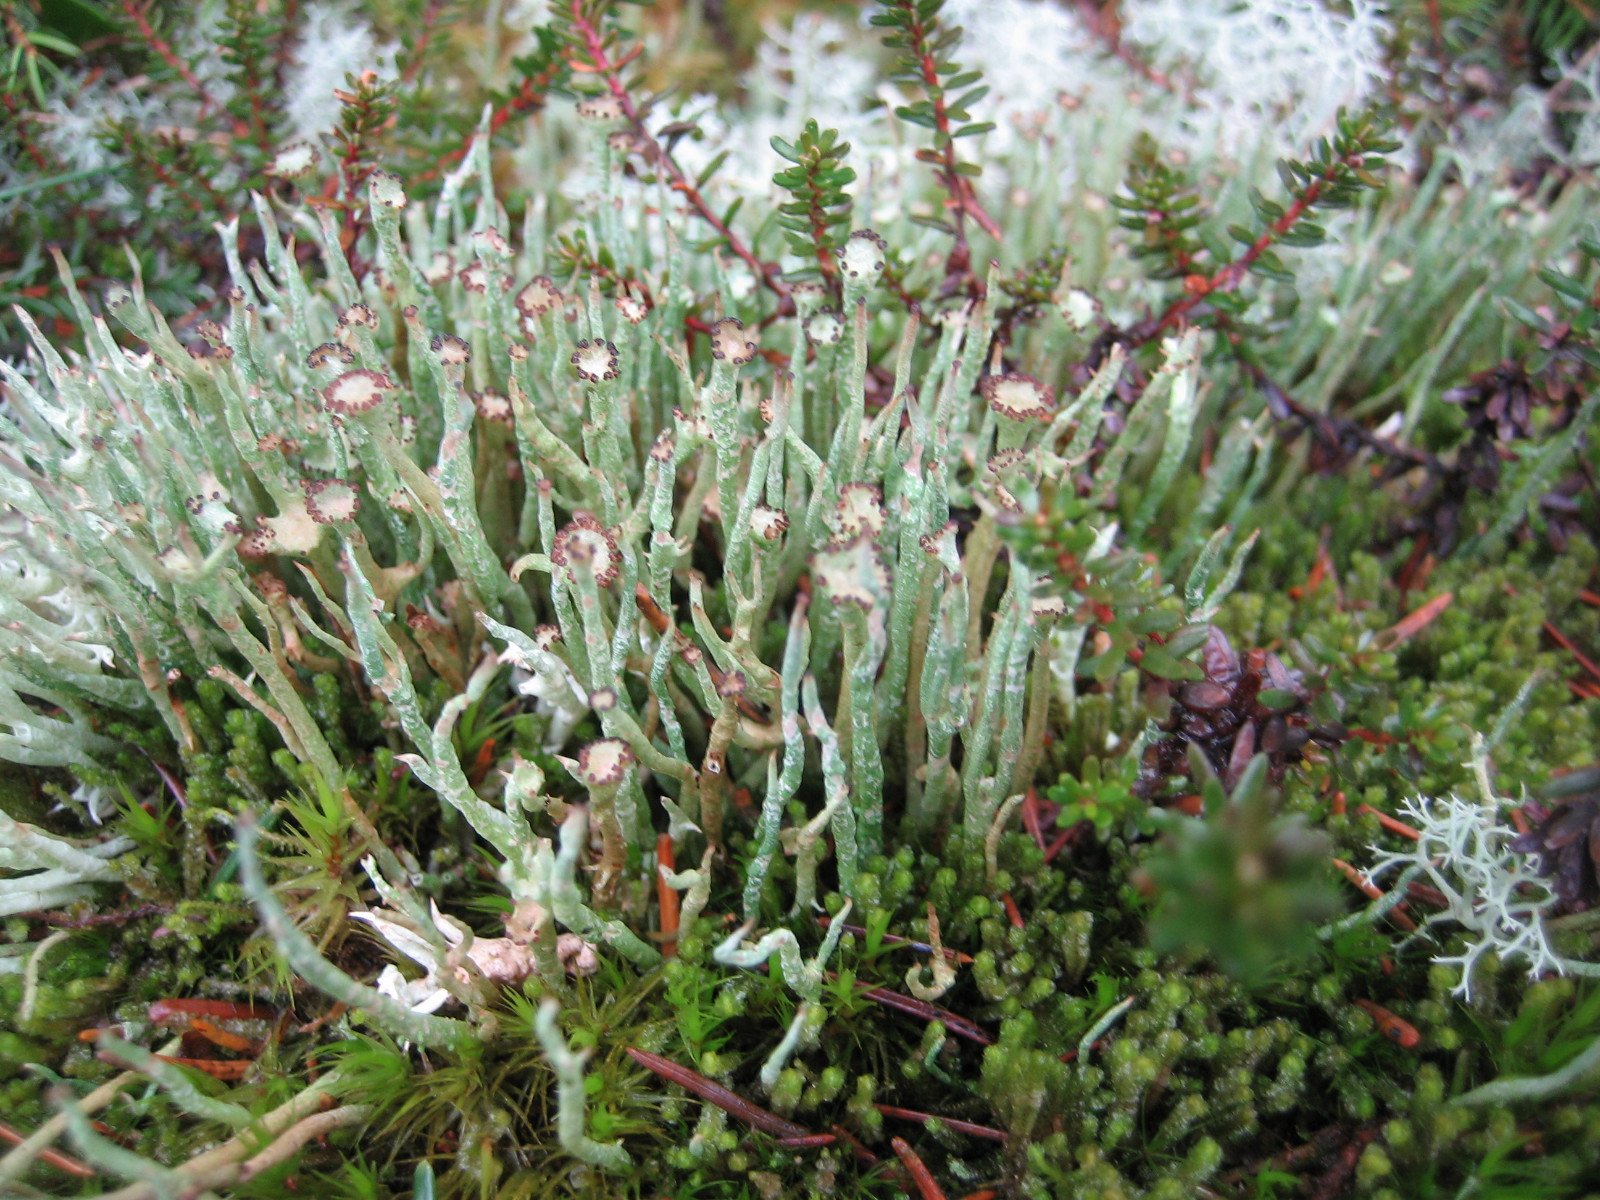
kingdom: Fungi
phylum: Ascomycota
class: Lecanoromycetes
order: Lecanorales
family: Cladoniaceae
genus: Cladonia
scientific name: Cladonia gracilis
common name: slank bægerlav
